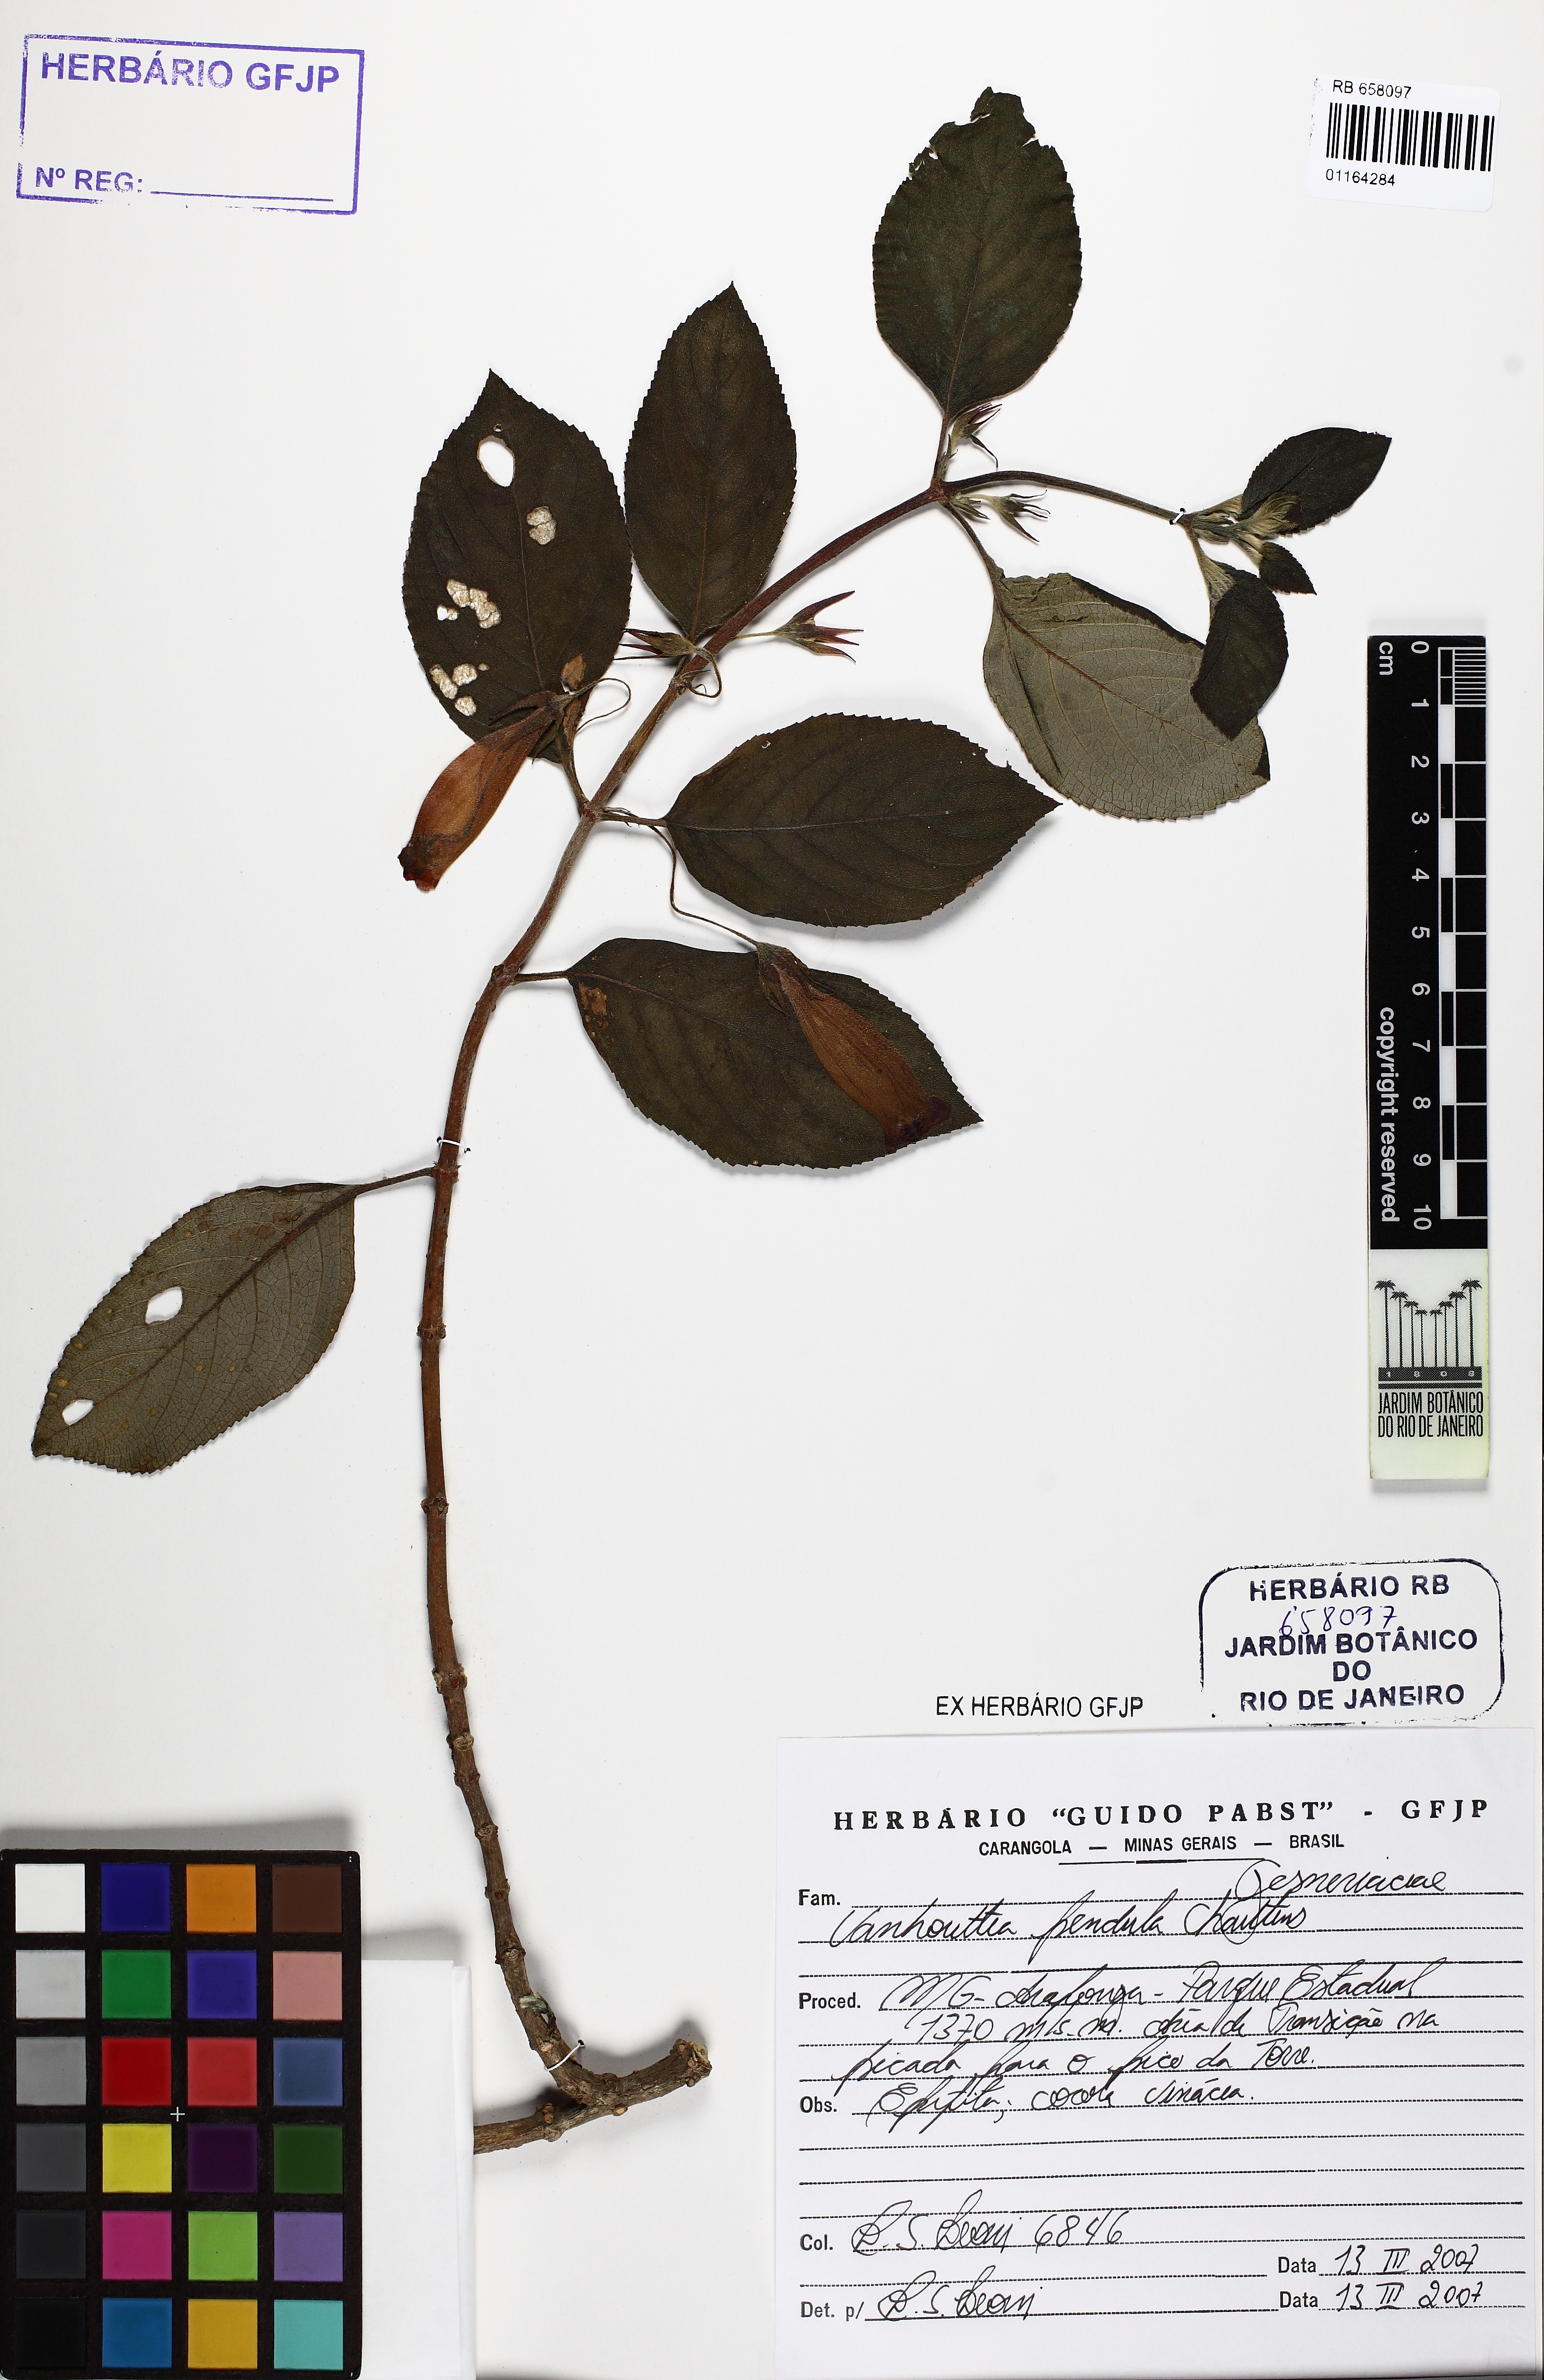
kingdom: Plantae
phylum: Tracheophyta
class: Magnoliopsida
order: Lamiales
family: Gesneriaceae
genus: Vanhouttea
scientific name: Vanhouttea pendula
